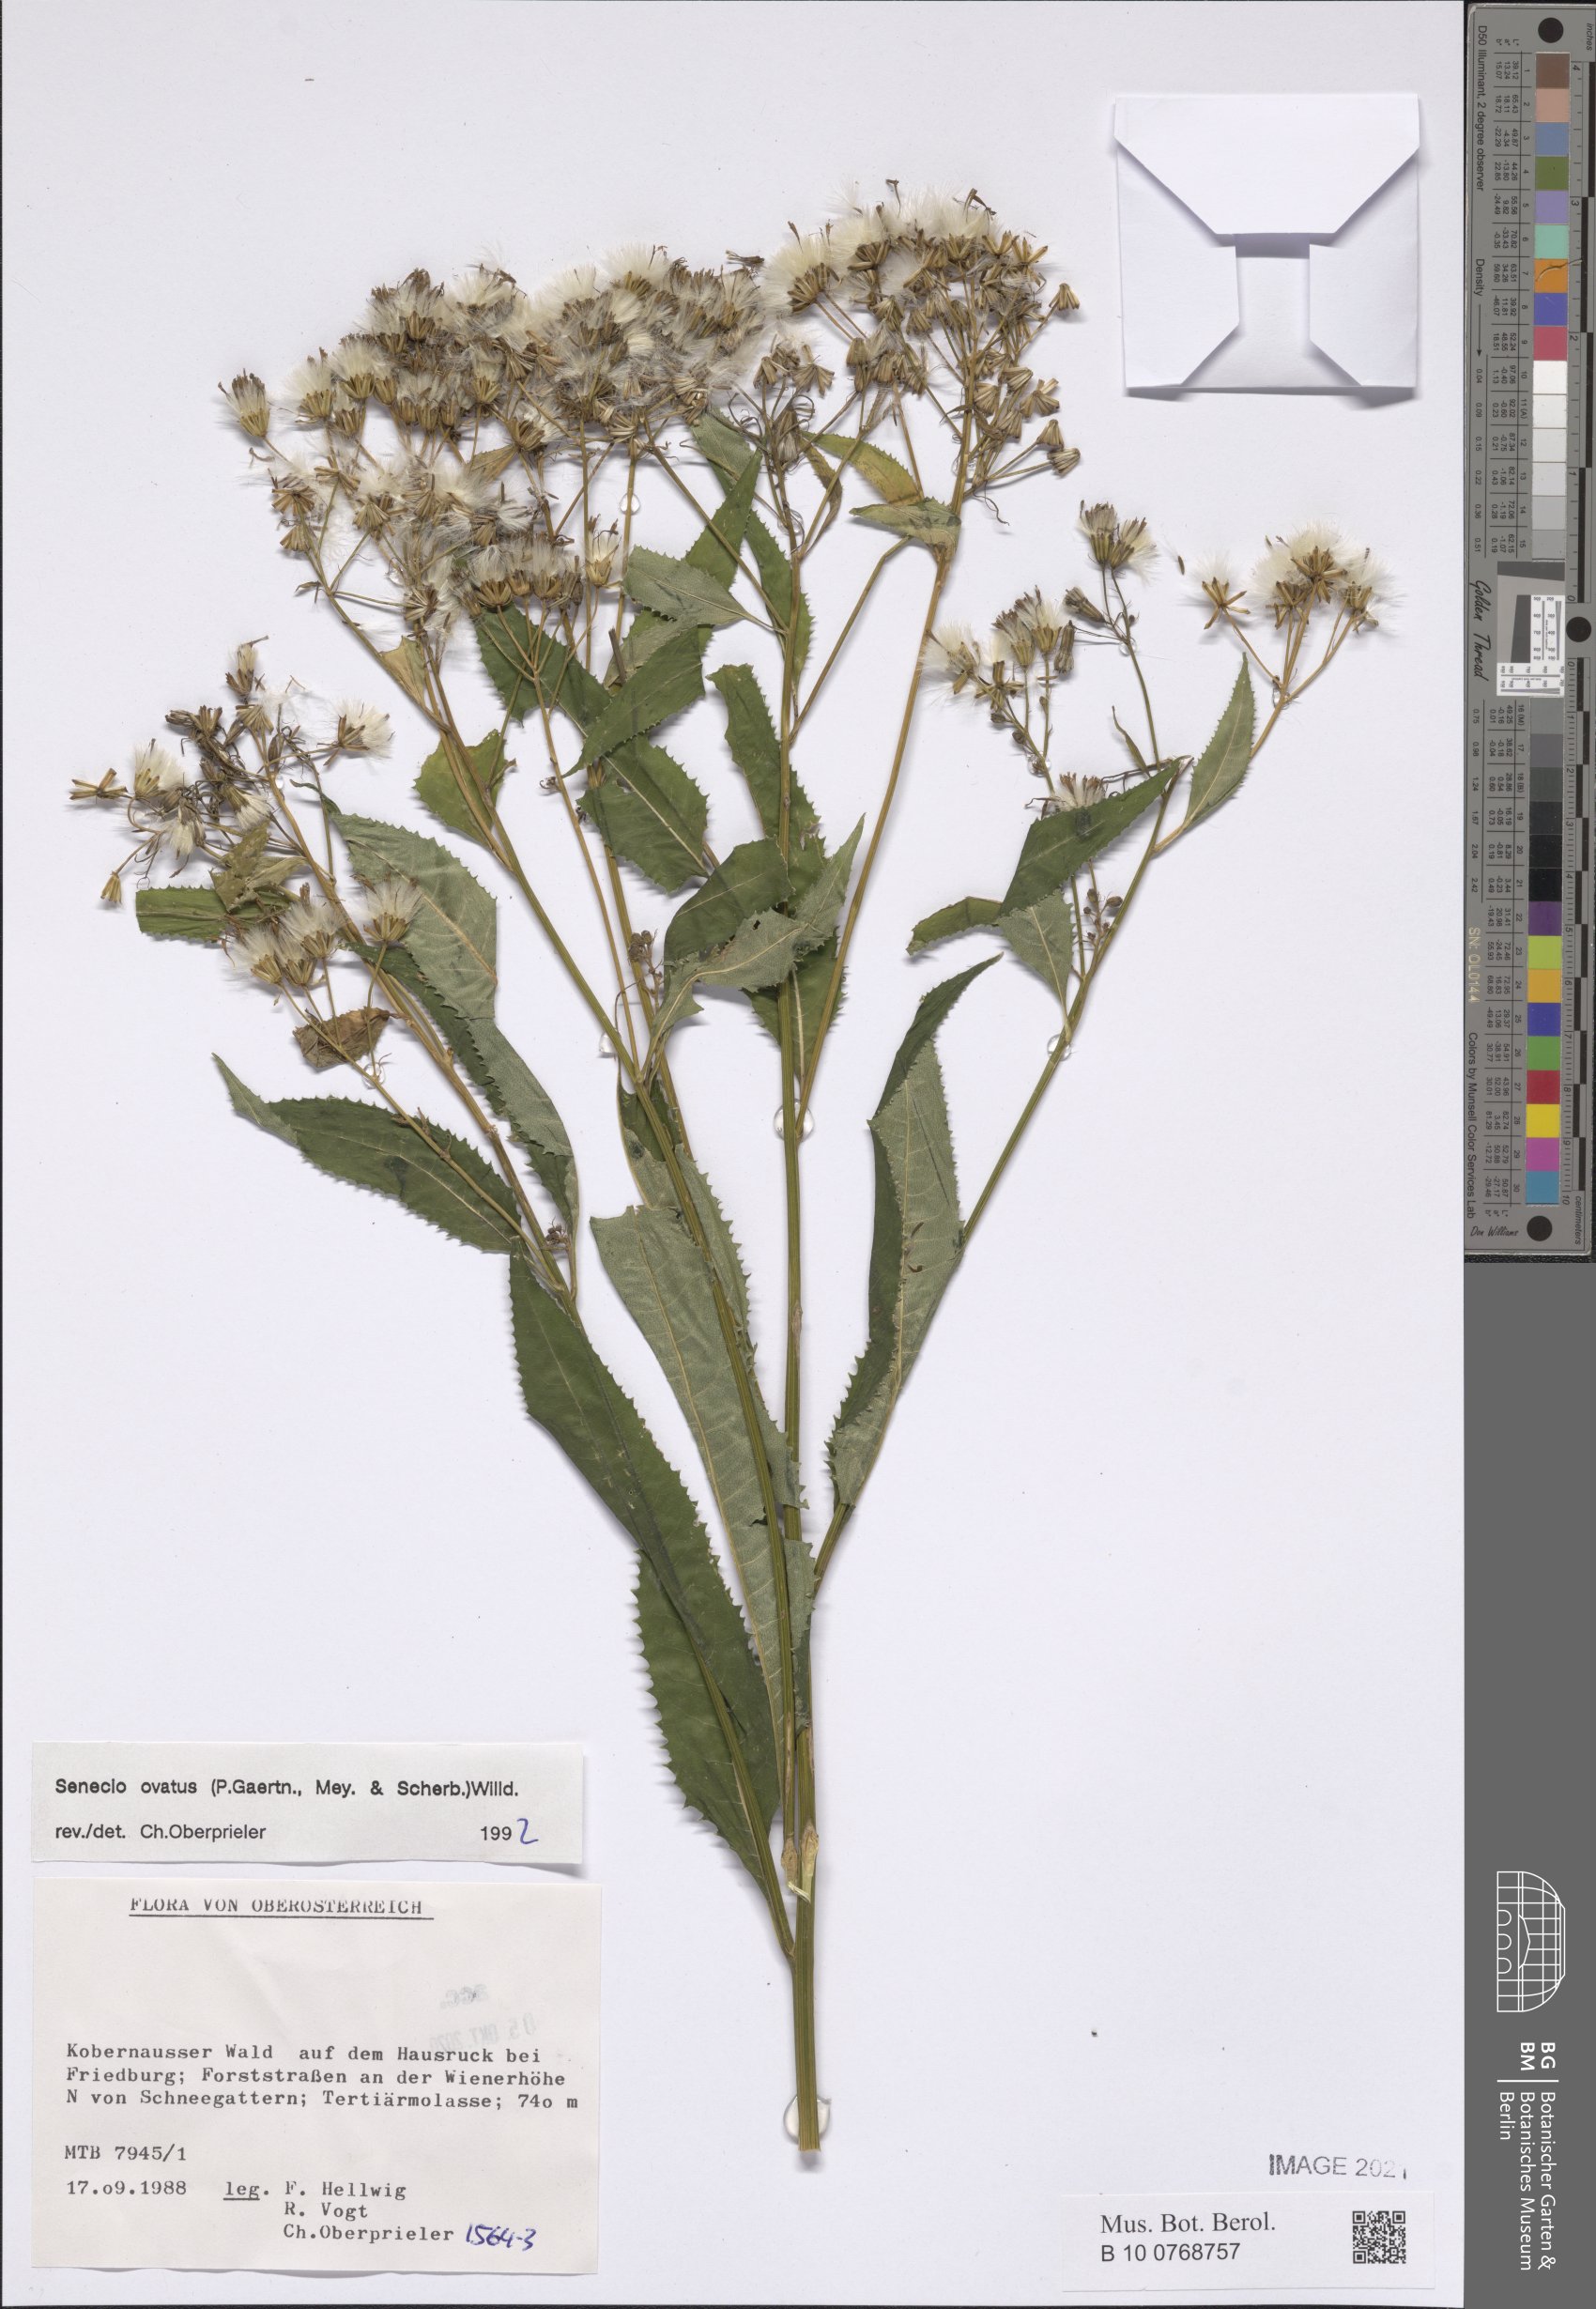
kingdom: Plantae
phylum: Tracheophyta
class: Magnoliopsida
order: Asterales
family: Asteraceae
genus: Senecio
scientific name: Senecio ovatus
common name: Wood ragwort
